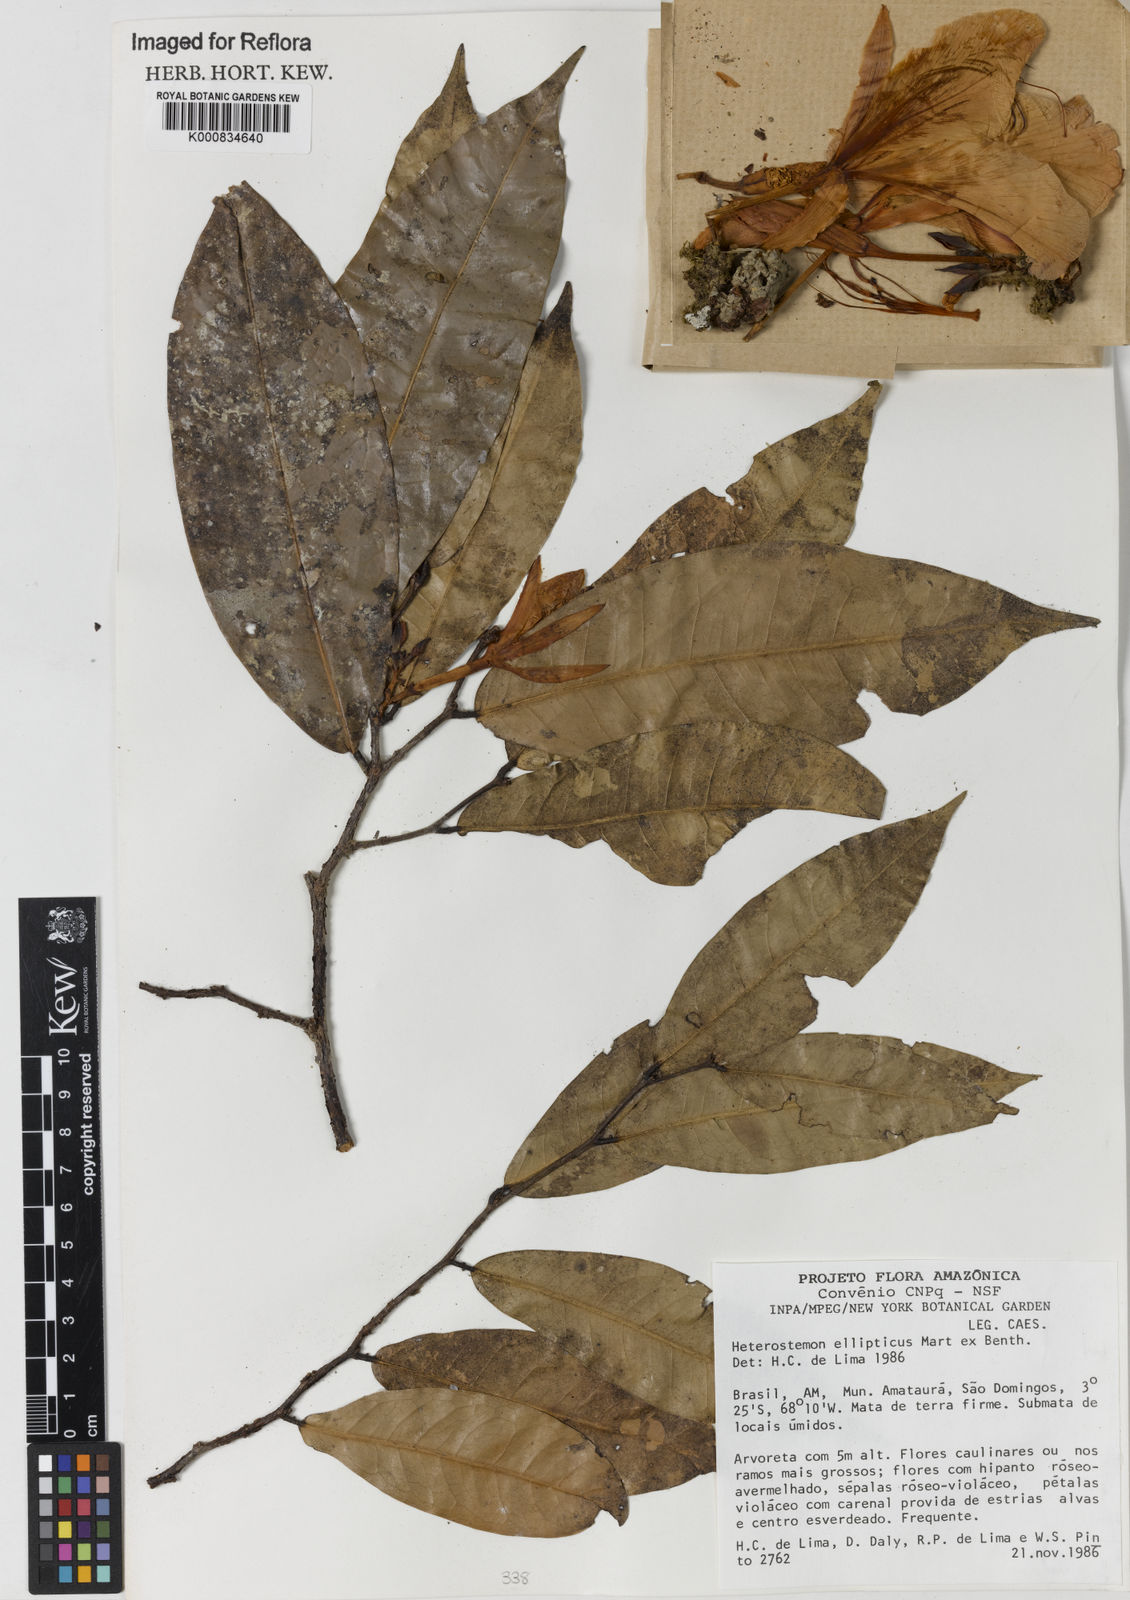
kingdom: Plantae
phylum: Tracheophyta
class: Magnoliopsida
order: Fabales
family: Fabaceae
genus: Heterostemon
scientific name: Heterostemon ellipticus
